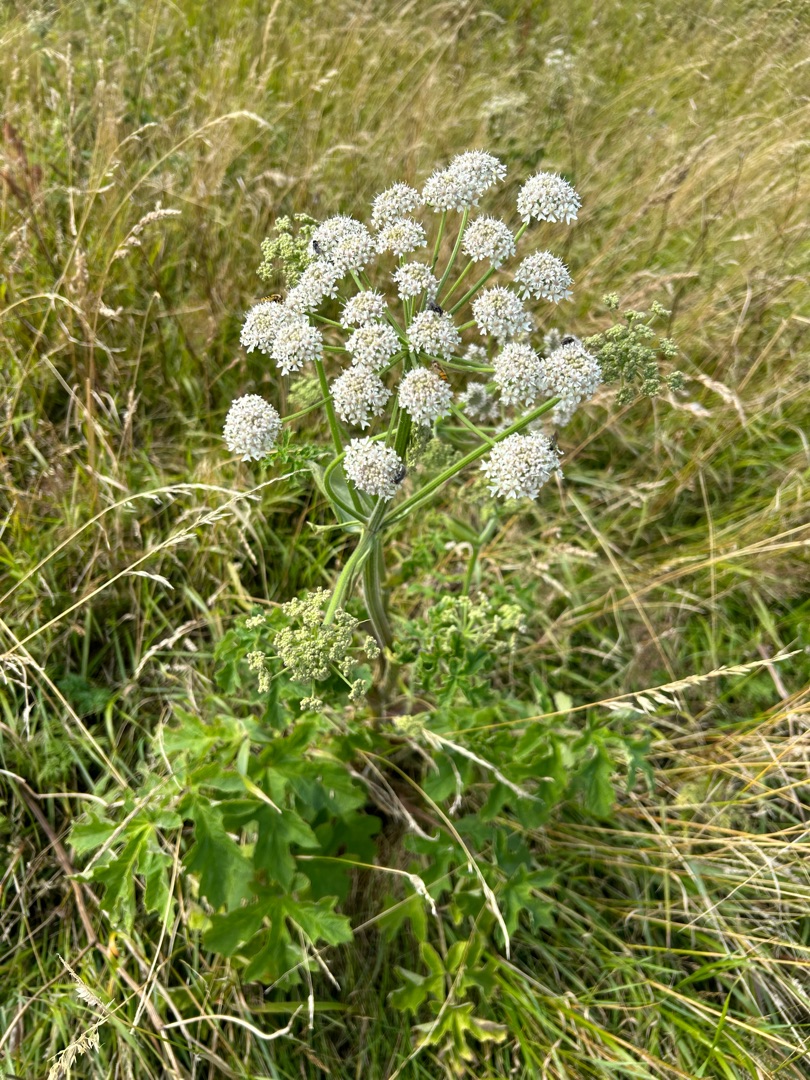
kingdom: Plantae
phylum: Tracheophyta
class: Magnoliopsida
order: Apiales
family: Apiaceae
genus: Heracleum
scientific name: Heracleum sphondylium
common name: Almindelig bjørneklo
